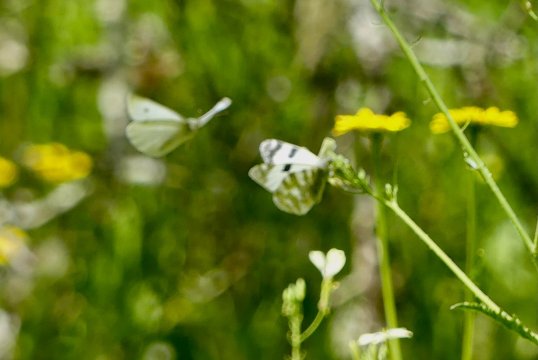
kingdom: Animalia
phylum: Arthropoda
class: Insecta
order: Lepidoptera
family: Pieridae
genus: Pieris
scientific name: Pieris rapae
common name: Cabbage White
